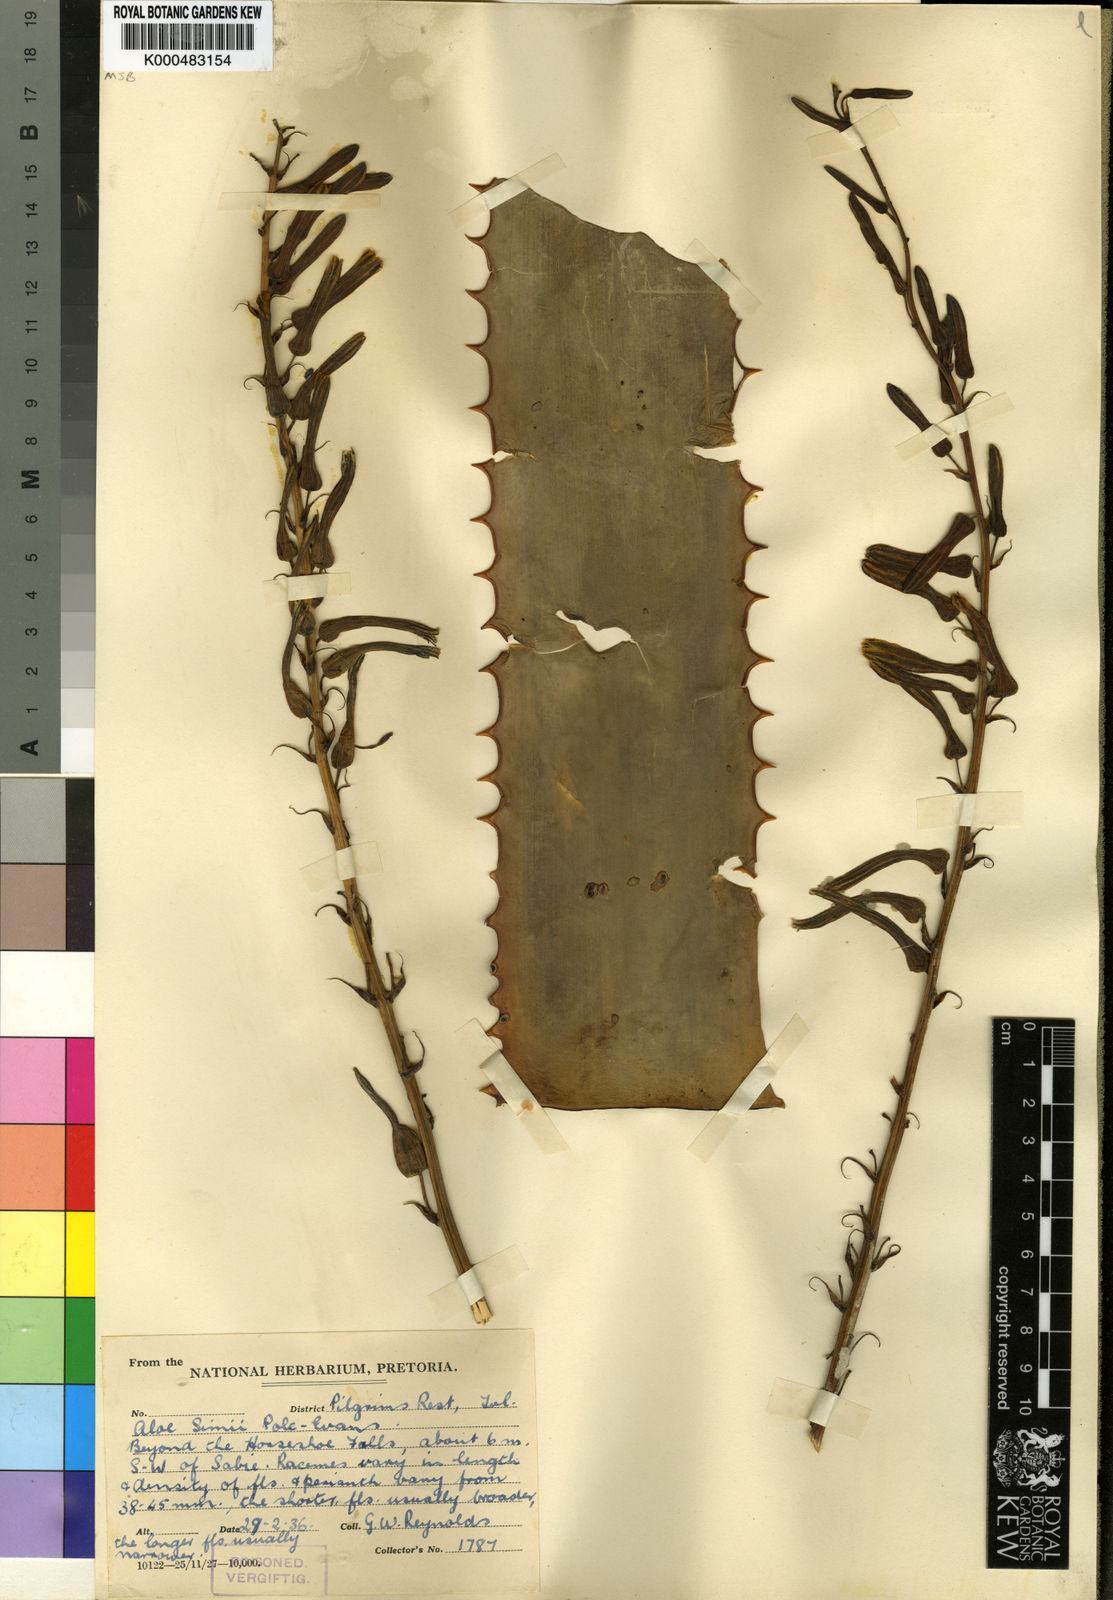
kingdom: Plantae
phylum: Tracheophyta
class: Liliopsida
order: Asparagales
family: Asphodelaceae
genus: Aloe
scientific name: Aloe simii
